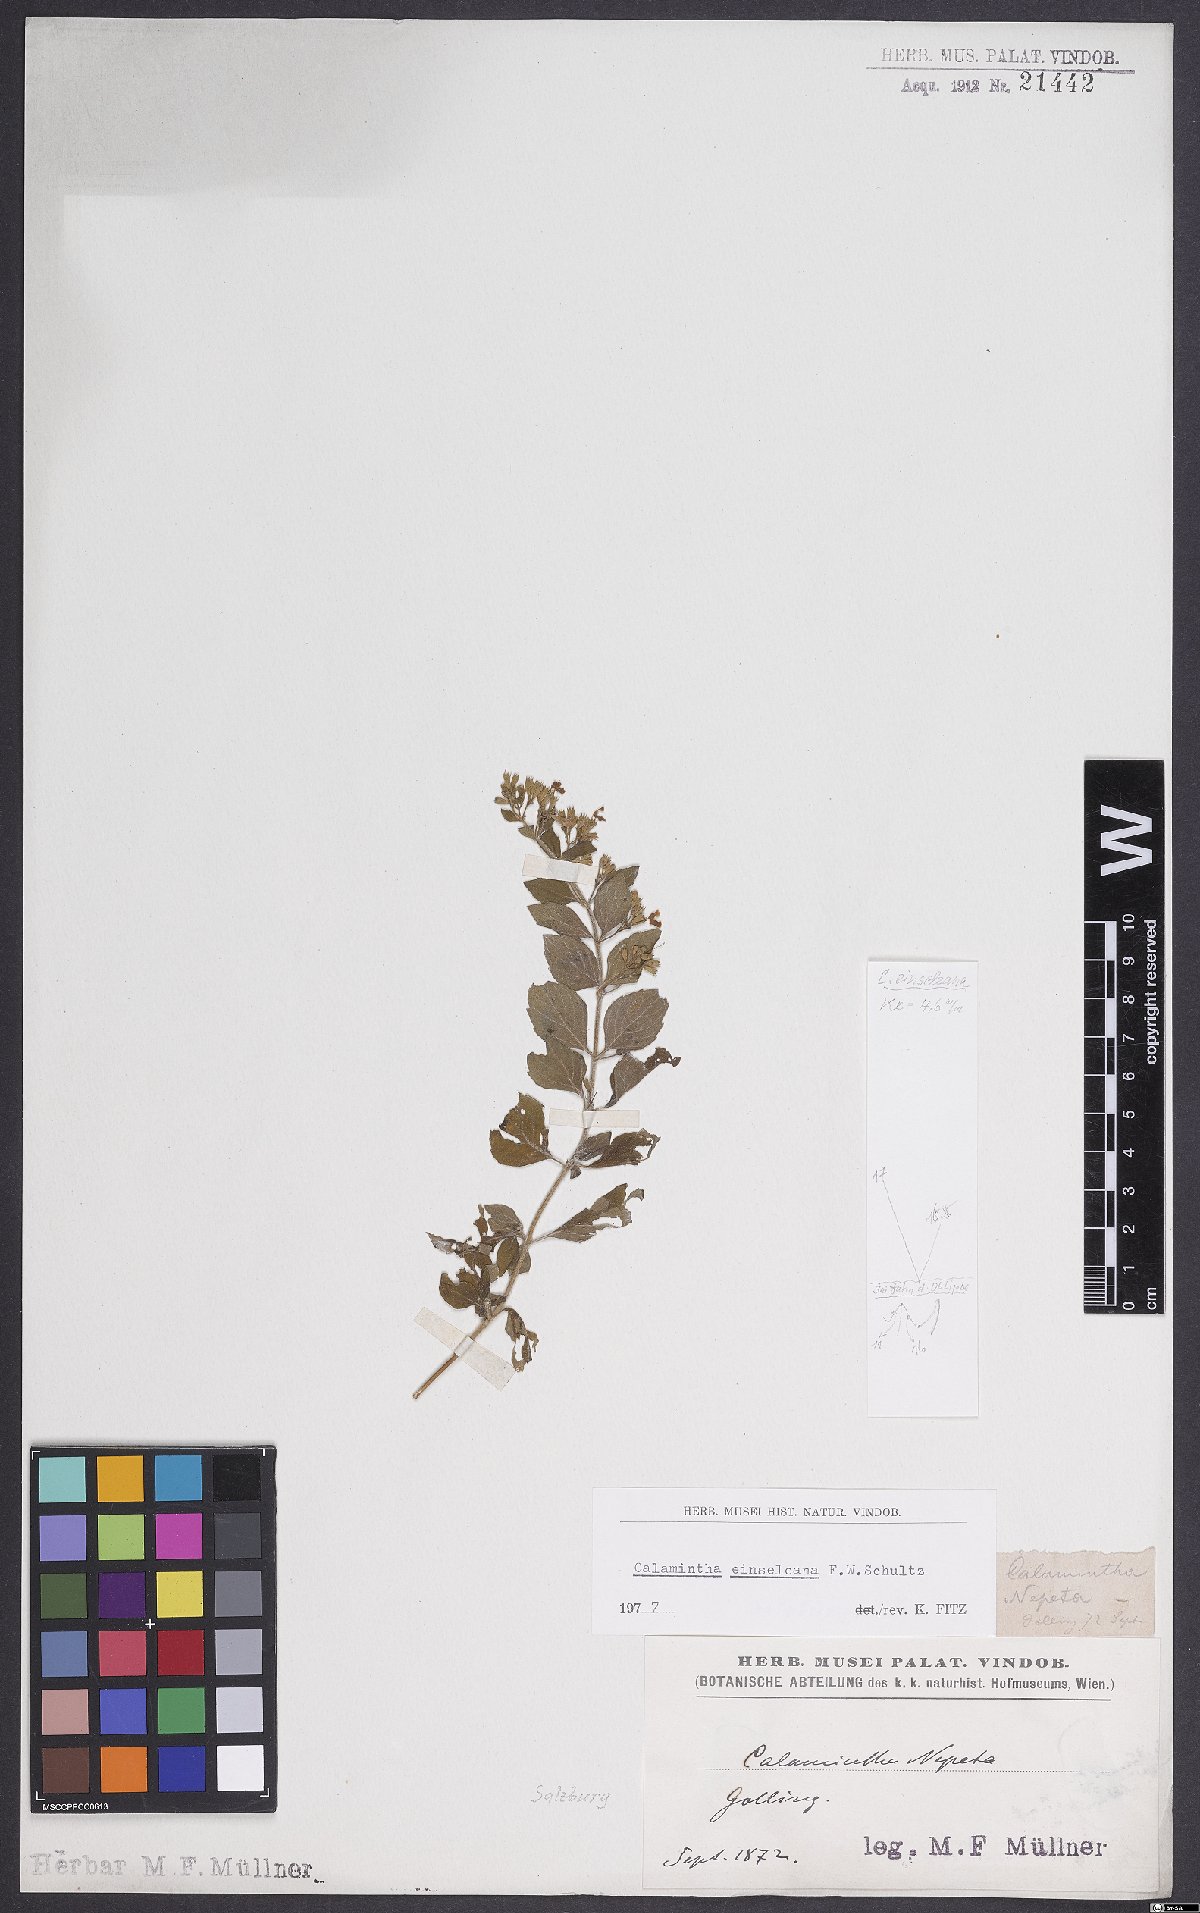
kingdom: Plantae
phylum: Tracheophyta
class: Magnoliopsida
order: Lamiales
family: Lamiaceae
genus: Clinopodium
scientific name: Clinopodium nepeta
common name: Lesser calamint
